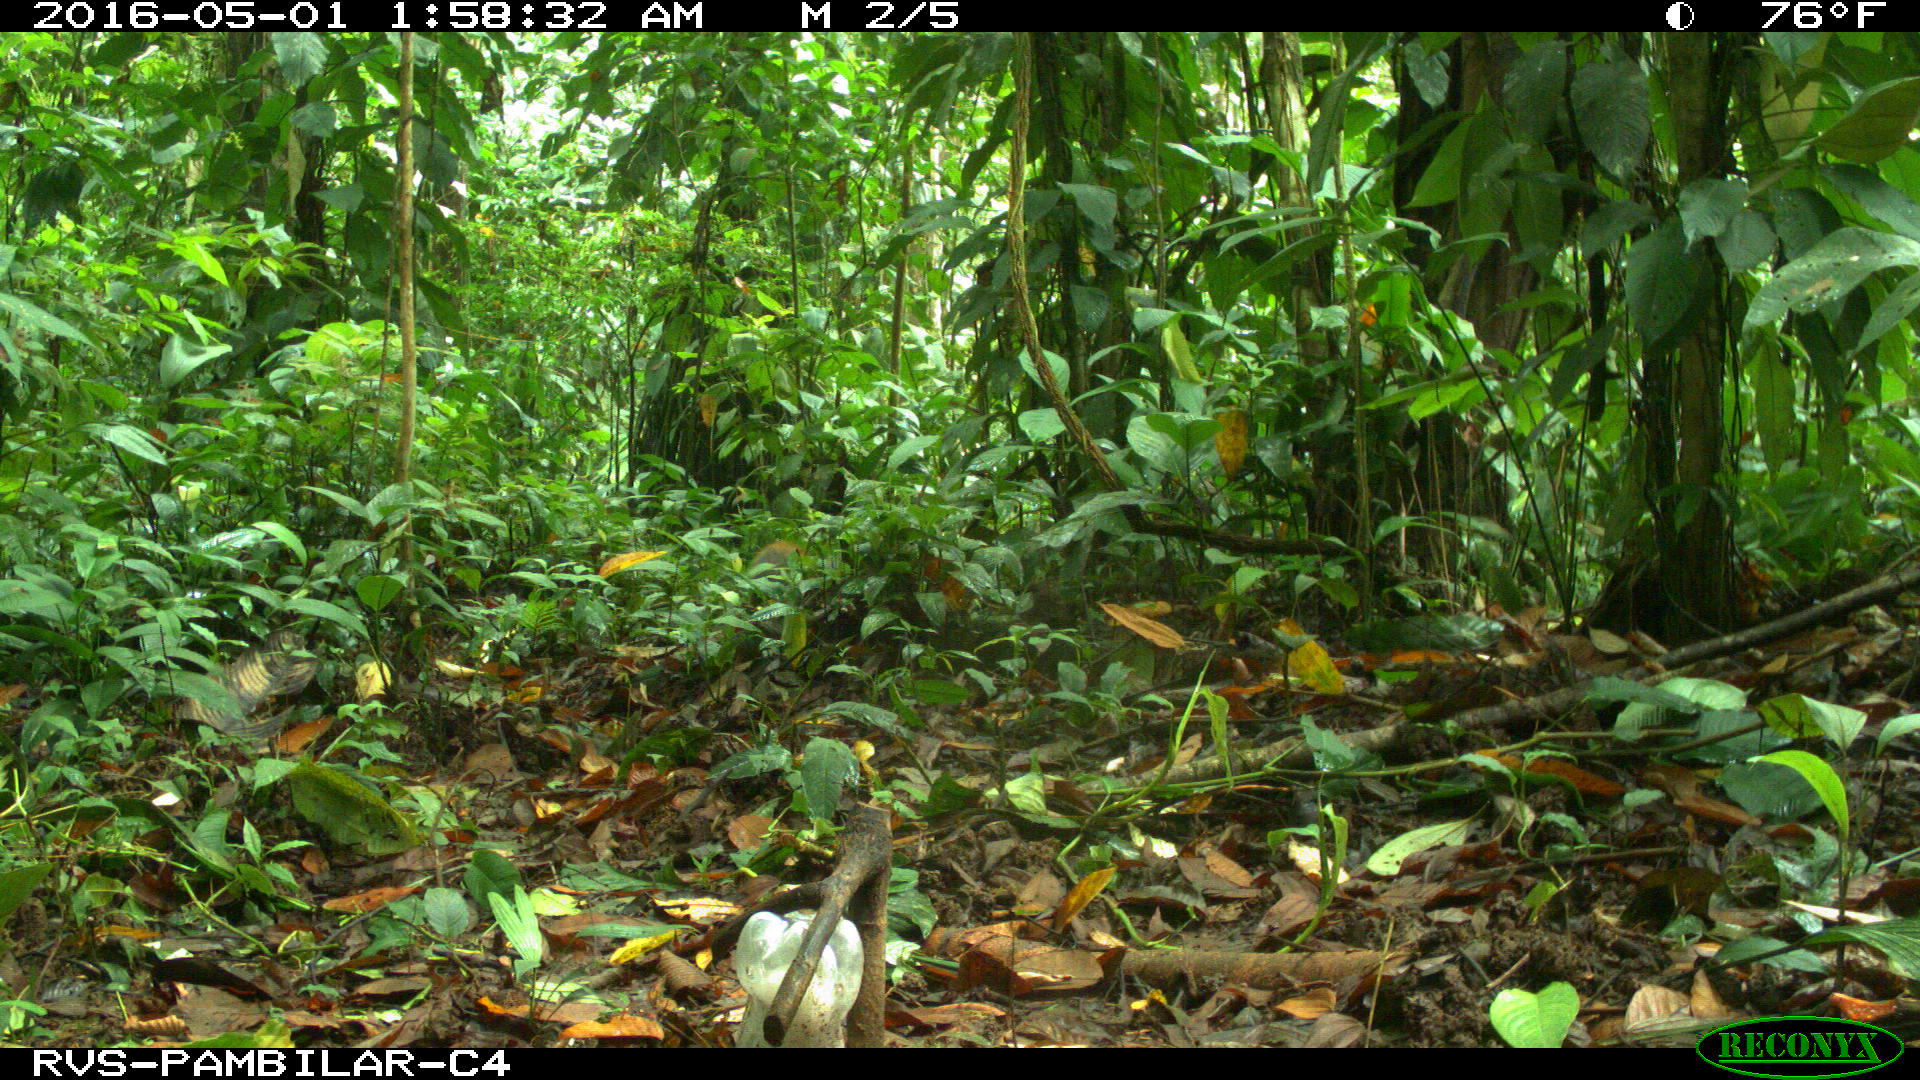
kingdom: Animalia
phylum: Chordata
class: Mammalia
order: Rodentia
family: Dasyproctidae
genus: Dasyprocta
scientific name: Dasyprocta punctata
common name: Central american agouti
